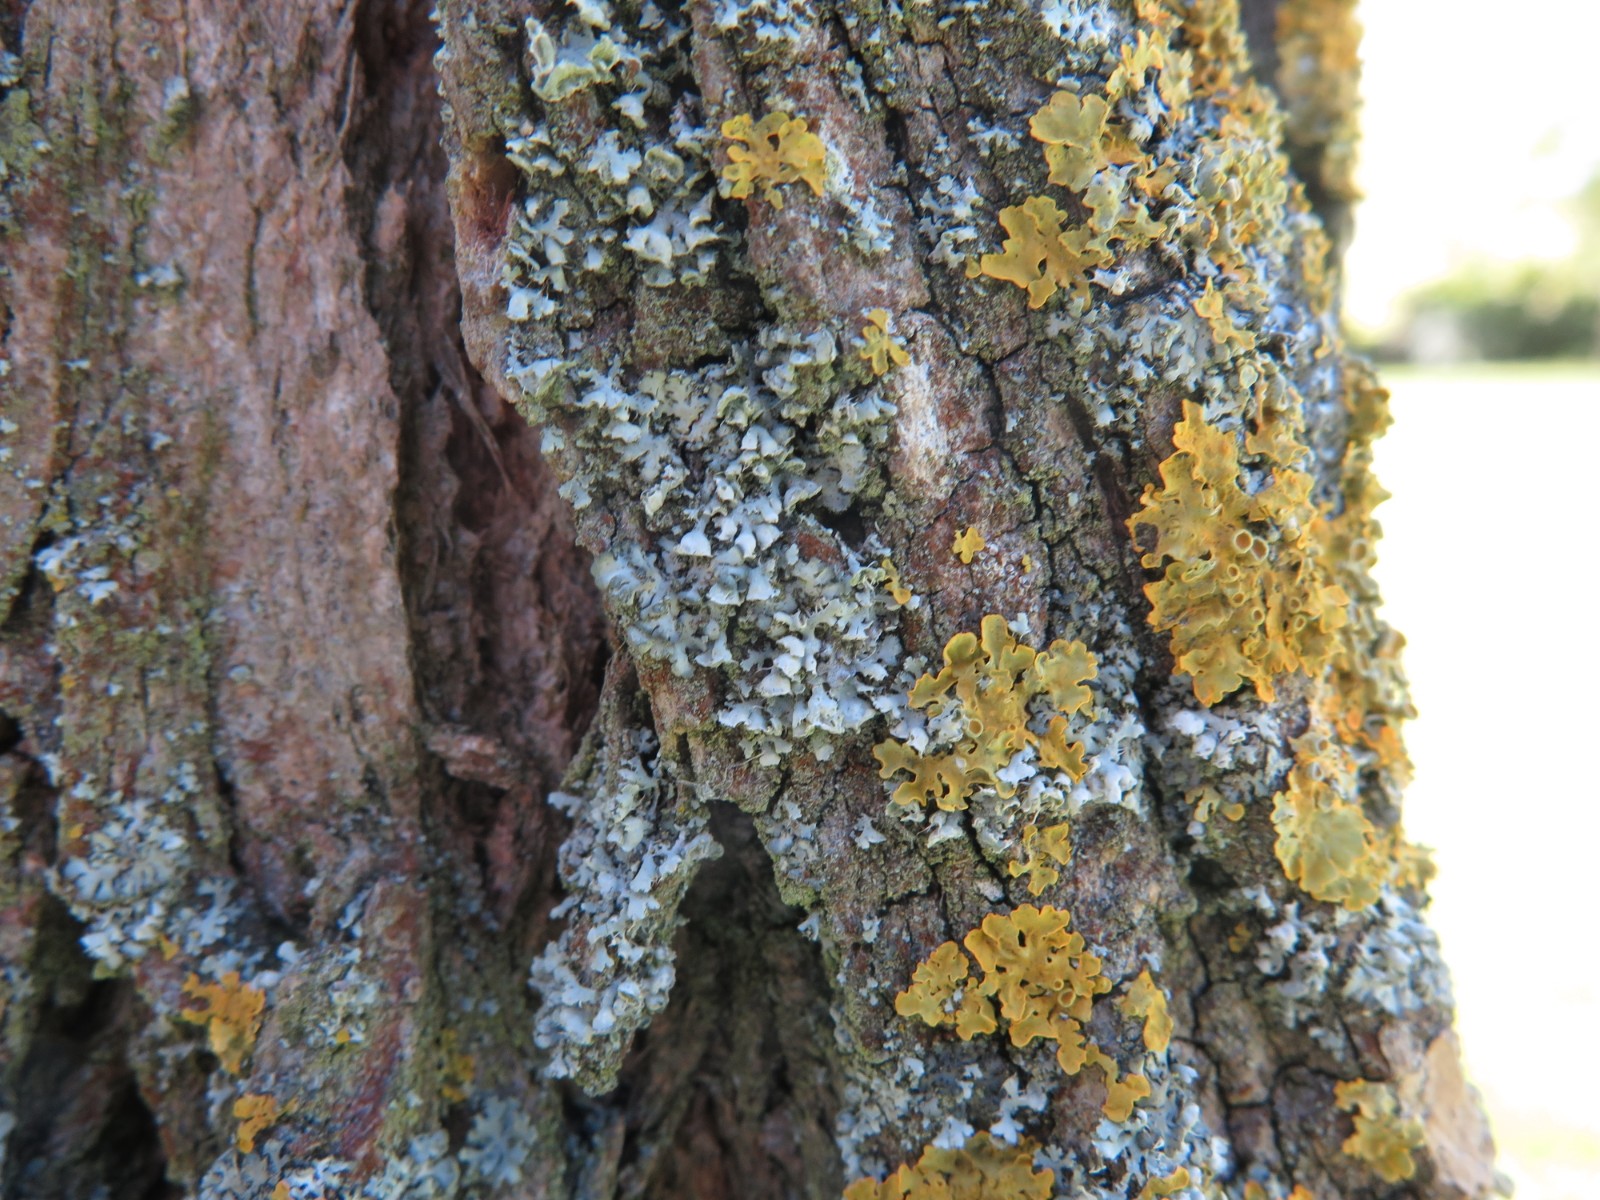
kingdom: Fungi
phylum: Ascomycota
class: Lecanoromycetes
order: Caliciales
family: Physciaceae
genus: Physcia
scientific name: Physcia adscendens
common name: hætte-rosetlav
